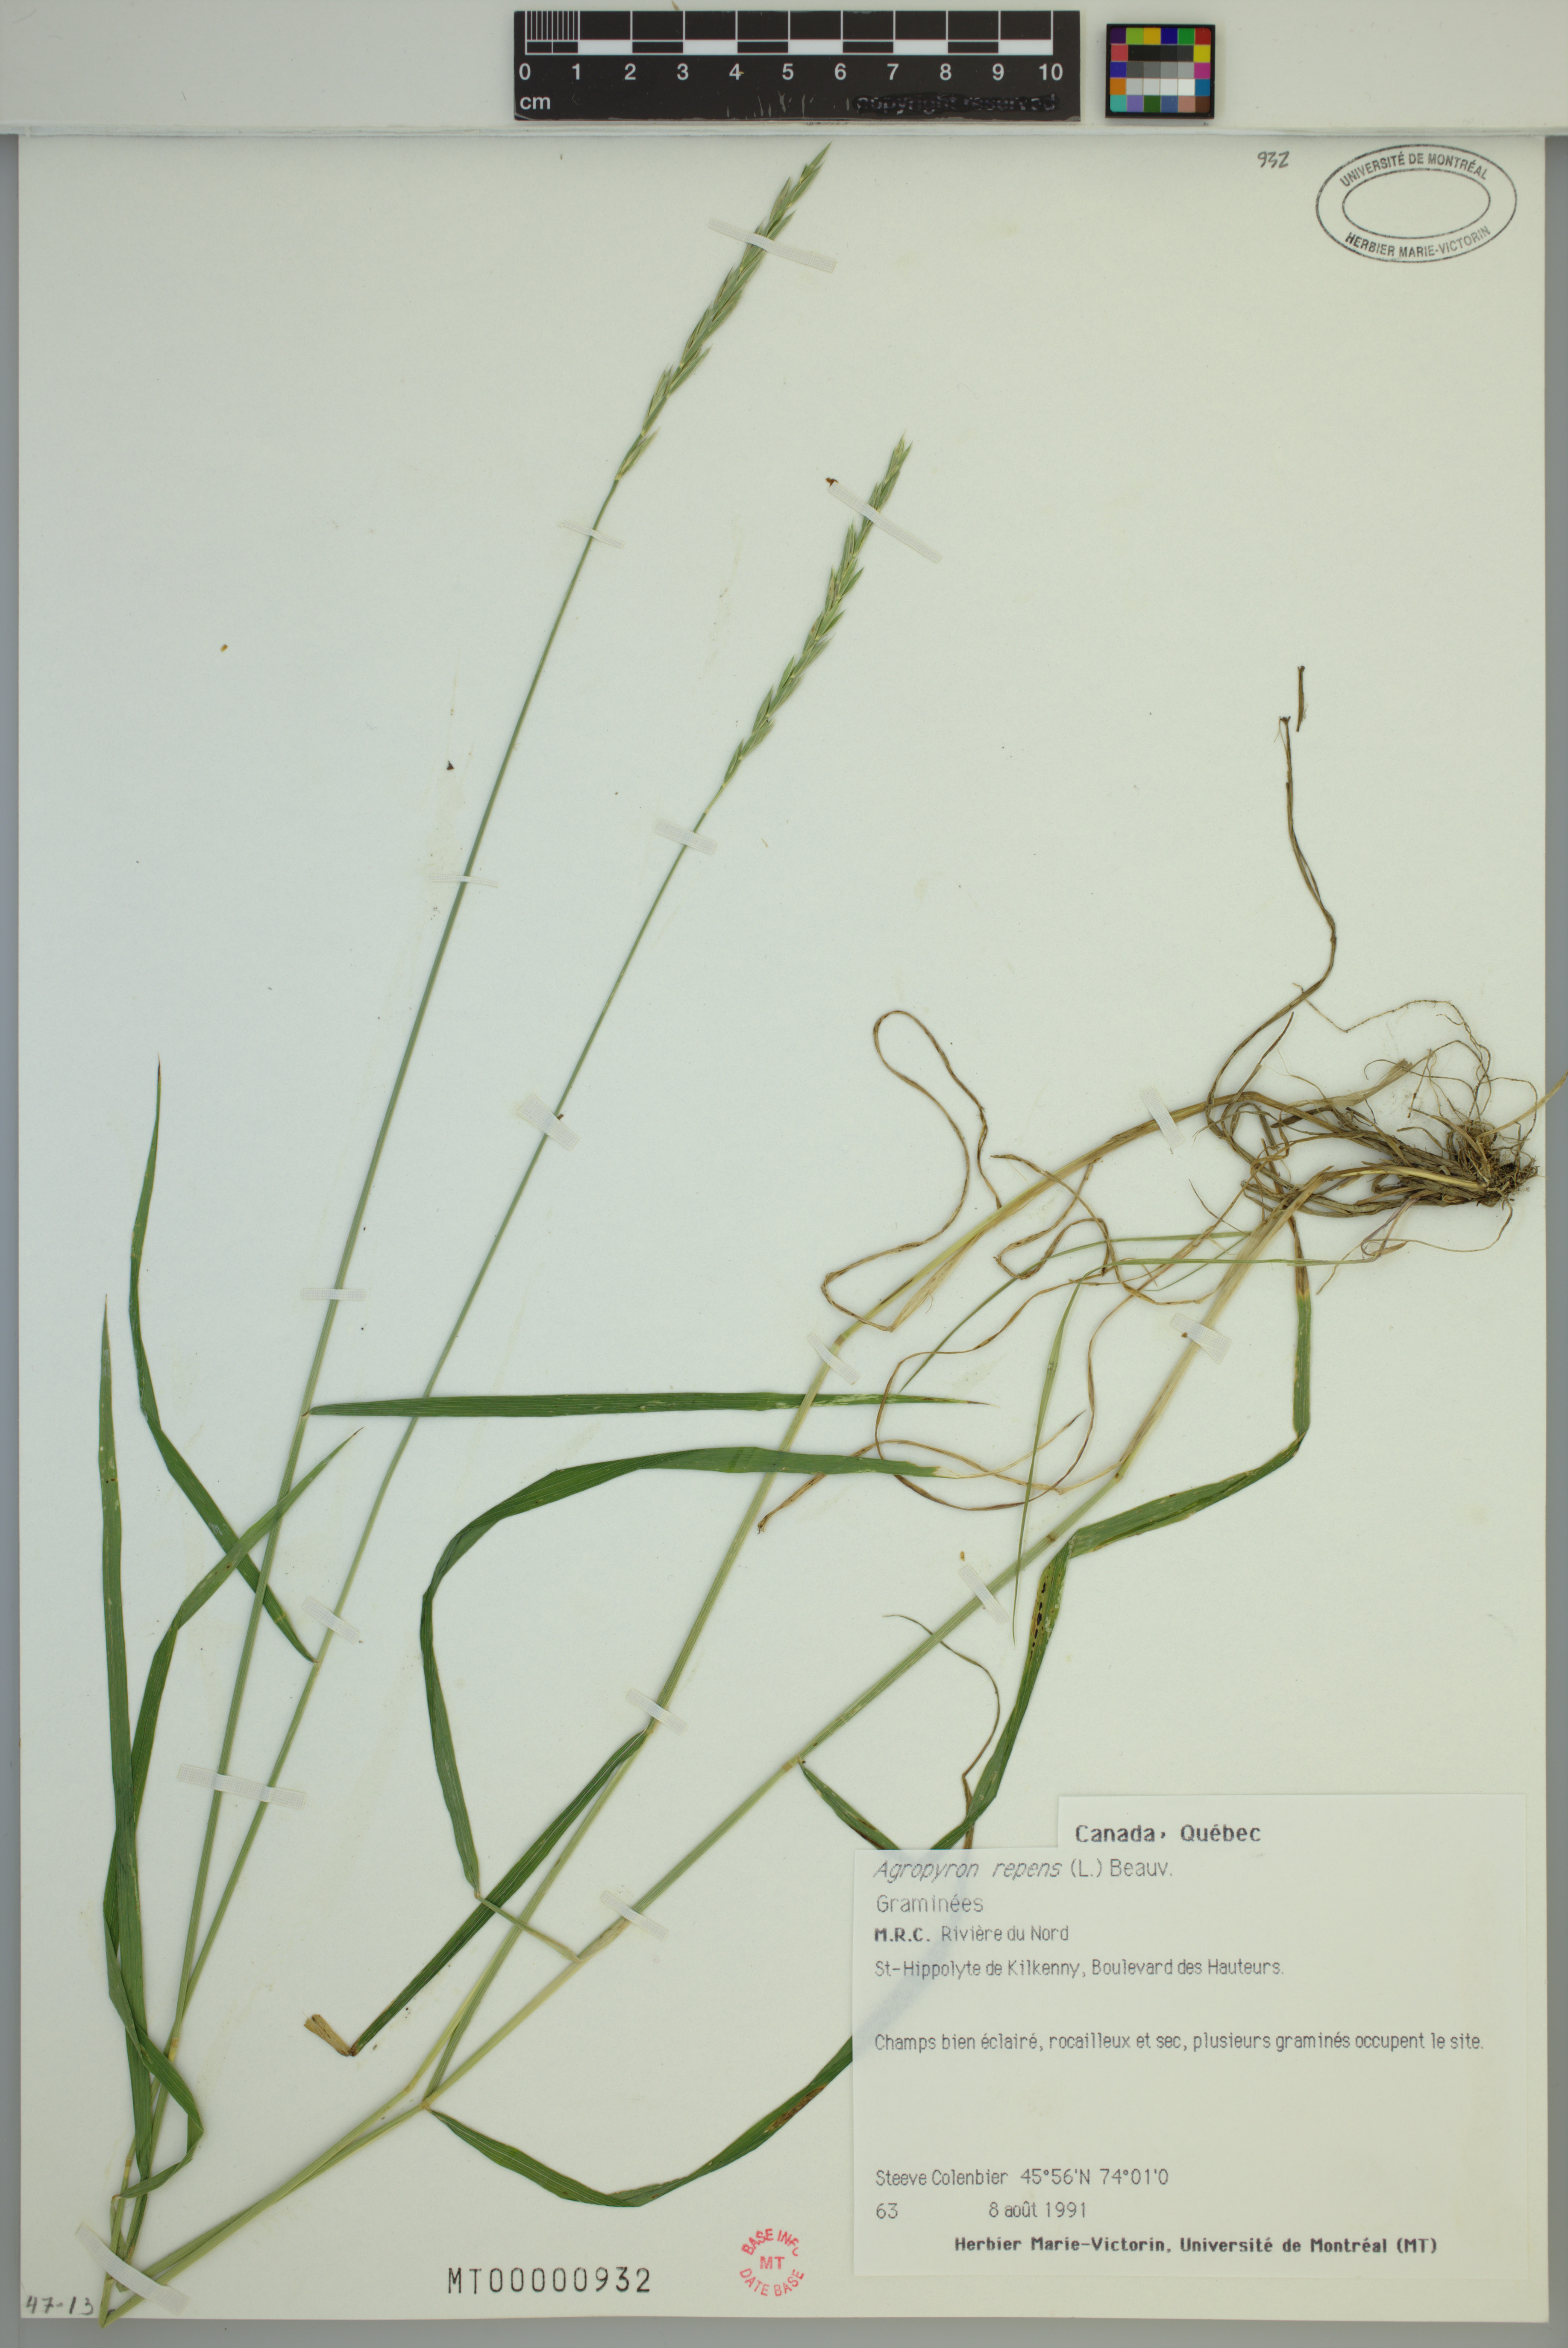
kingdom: Plantae
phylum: Tracheophyta
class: Liliopsida
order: Poales
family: Poaceae
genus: Elymus
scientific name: Elymus repens
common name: Quackgrass
